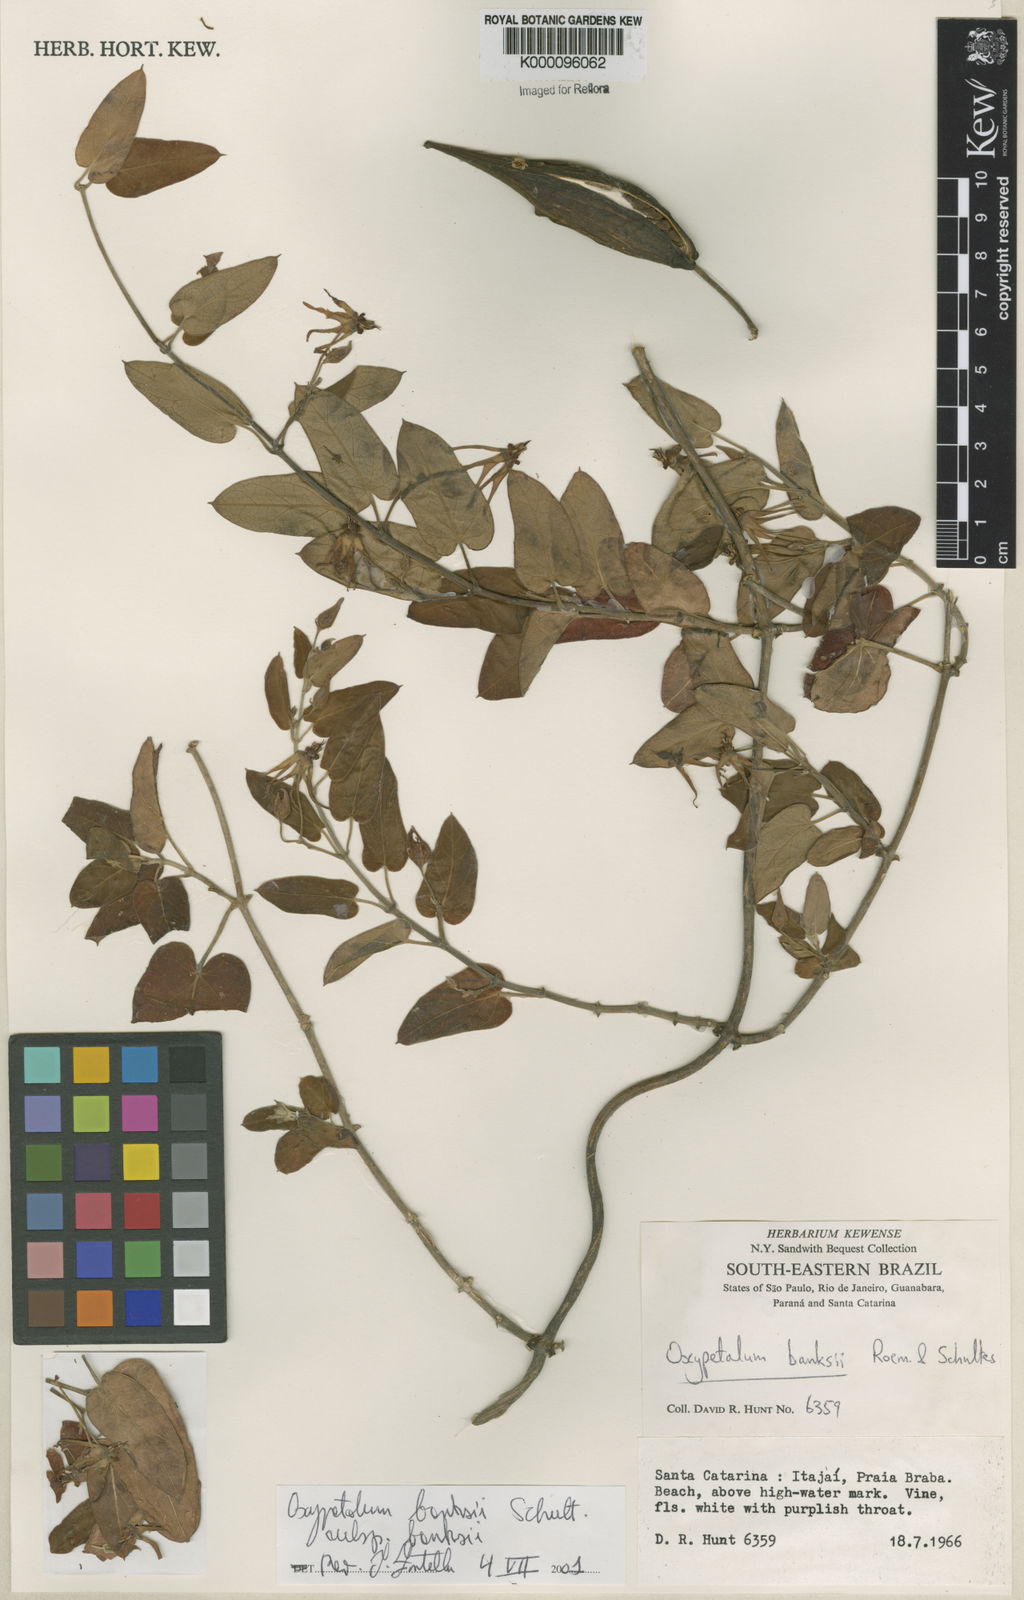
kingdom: Plantae
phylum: Tracheophyta
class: Magnoliopsida
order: Gentianales
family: Apocynaceae
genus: Oxypetalum
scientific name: Oxypetalum banksii
